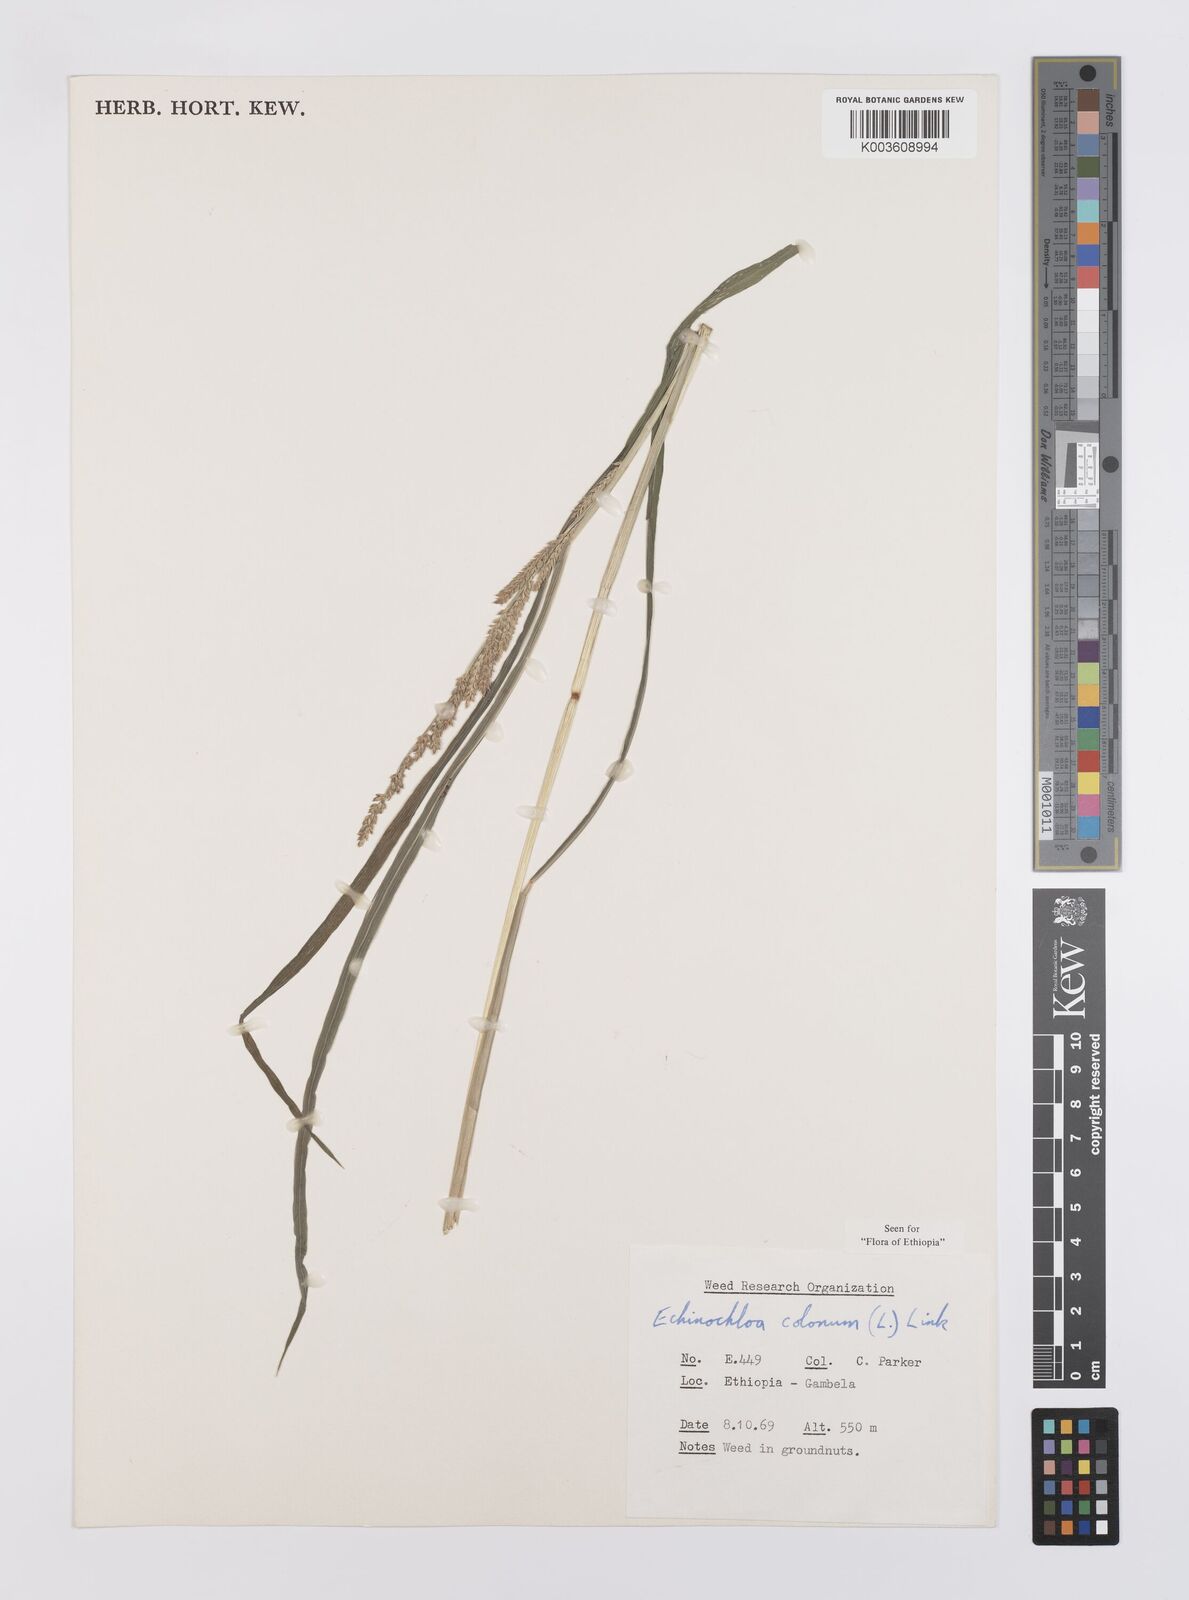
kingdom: Plantae
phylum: Tracheophyta
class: Liliopsida
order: Poales
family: Poaceae
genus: Echinochloa
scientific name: Echinochloa colonum
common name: Jungle rice
